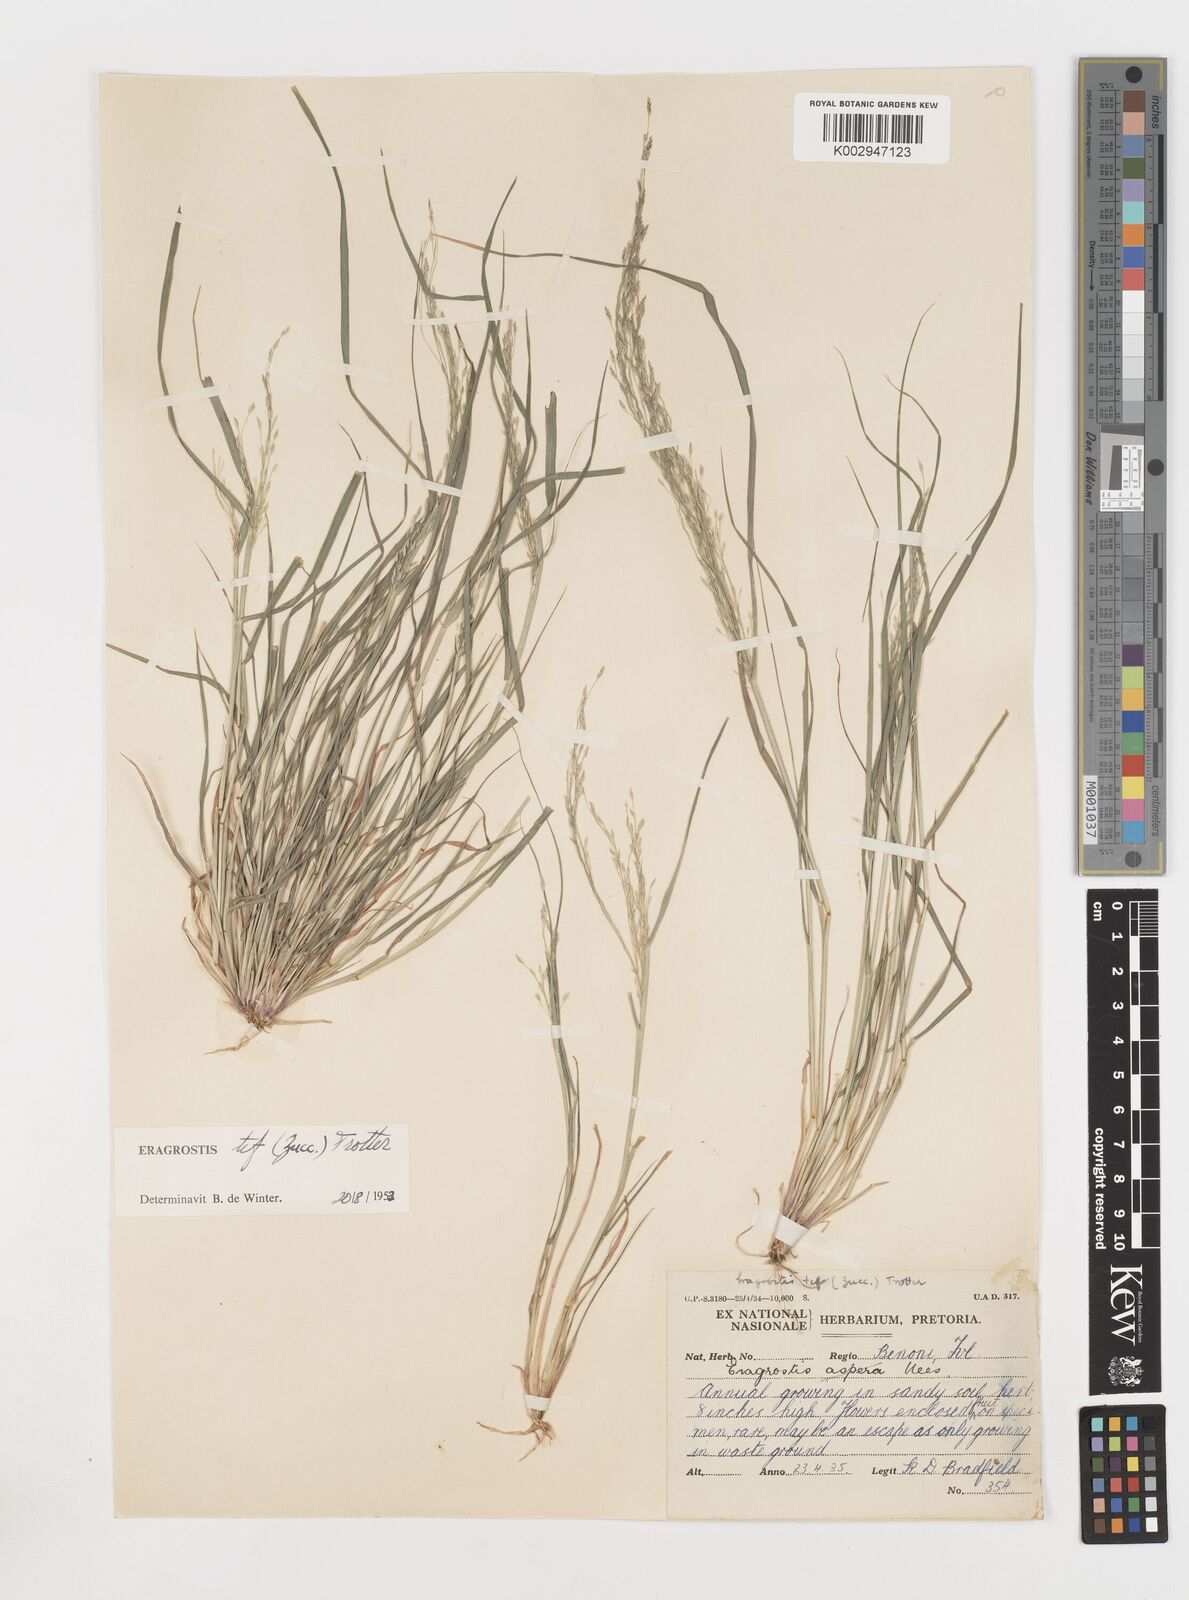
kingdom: Plantae
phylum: Tracheophyta
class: Liliopsida
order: Poales
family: Poaceae
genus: Eragrostis
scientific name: Eragrostis tef
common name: Teff
